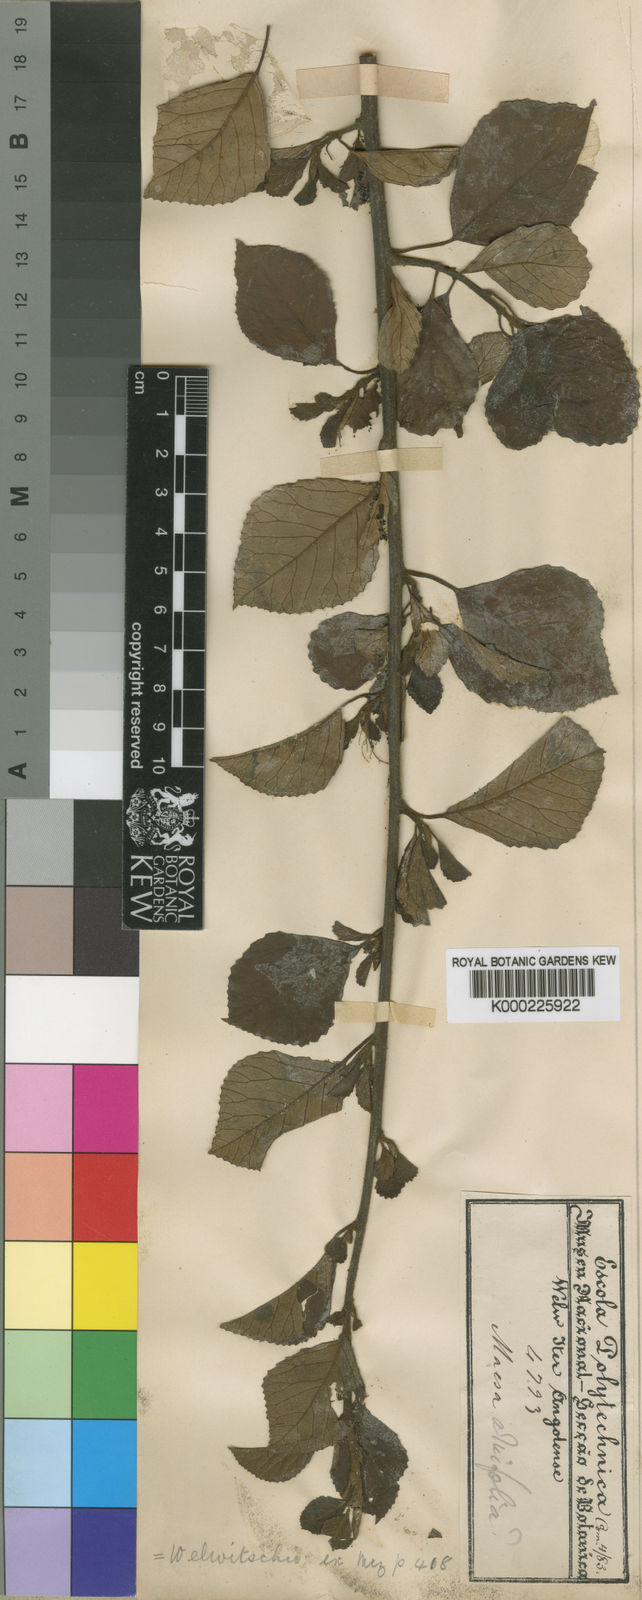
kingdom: Plantae
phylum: Tracheophyta
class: Magnoliopsida
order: Ericales
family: Primulaceae
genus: Maesa
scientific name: Maesa welwitschii
